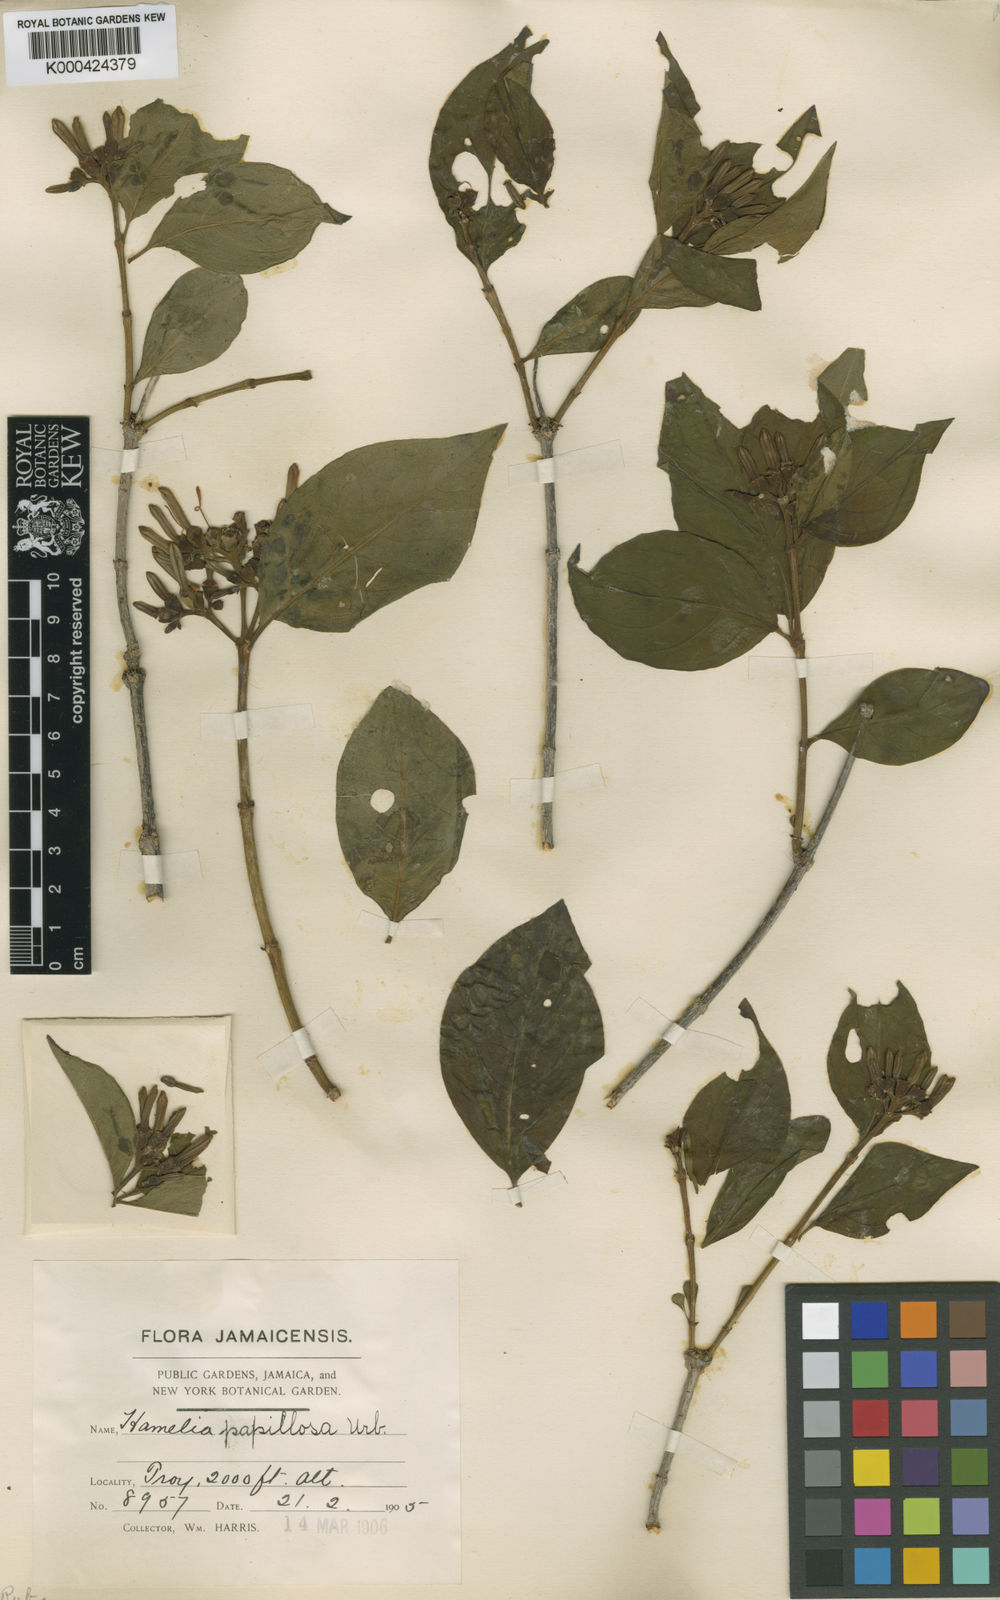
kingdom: Plantae
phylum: Tracheophyta
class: Magnoliopsida
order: Gentianales
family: Rubiaceae
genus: Hamelia
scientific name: Hamelia papillosa
